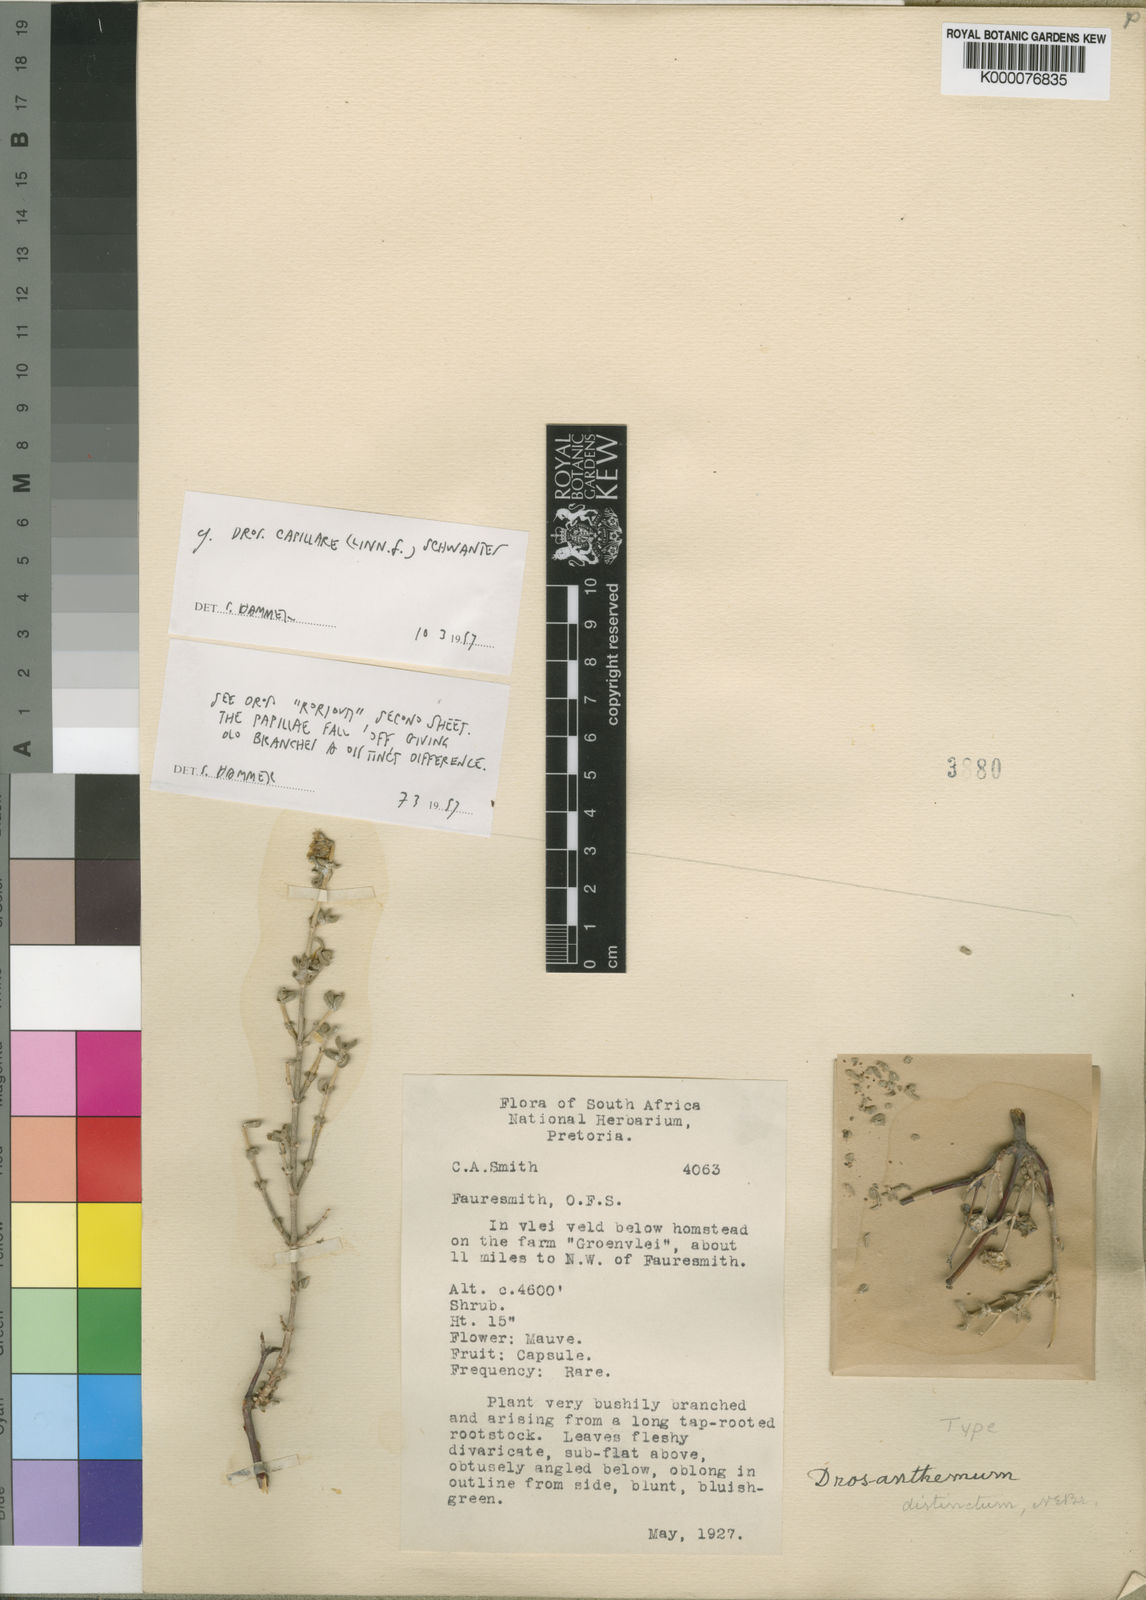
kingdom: Plantae
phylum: Tracheophyta
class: Magnoliopsida
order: Caryophyllales
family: Aizoaceae
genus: Drosanthemum
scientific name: Drosanthemum capillare
